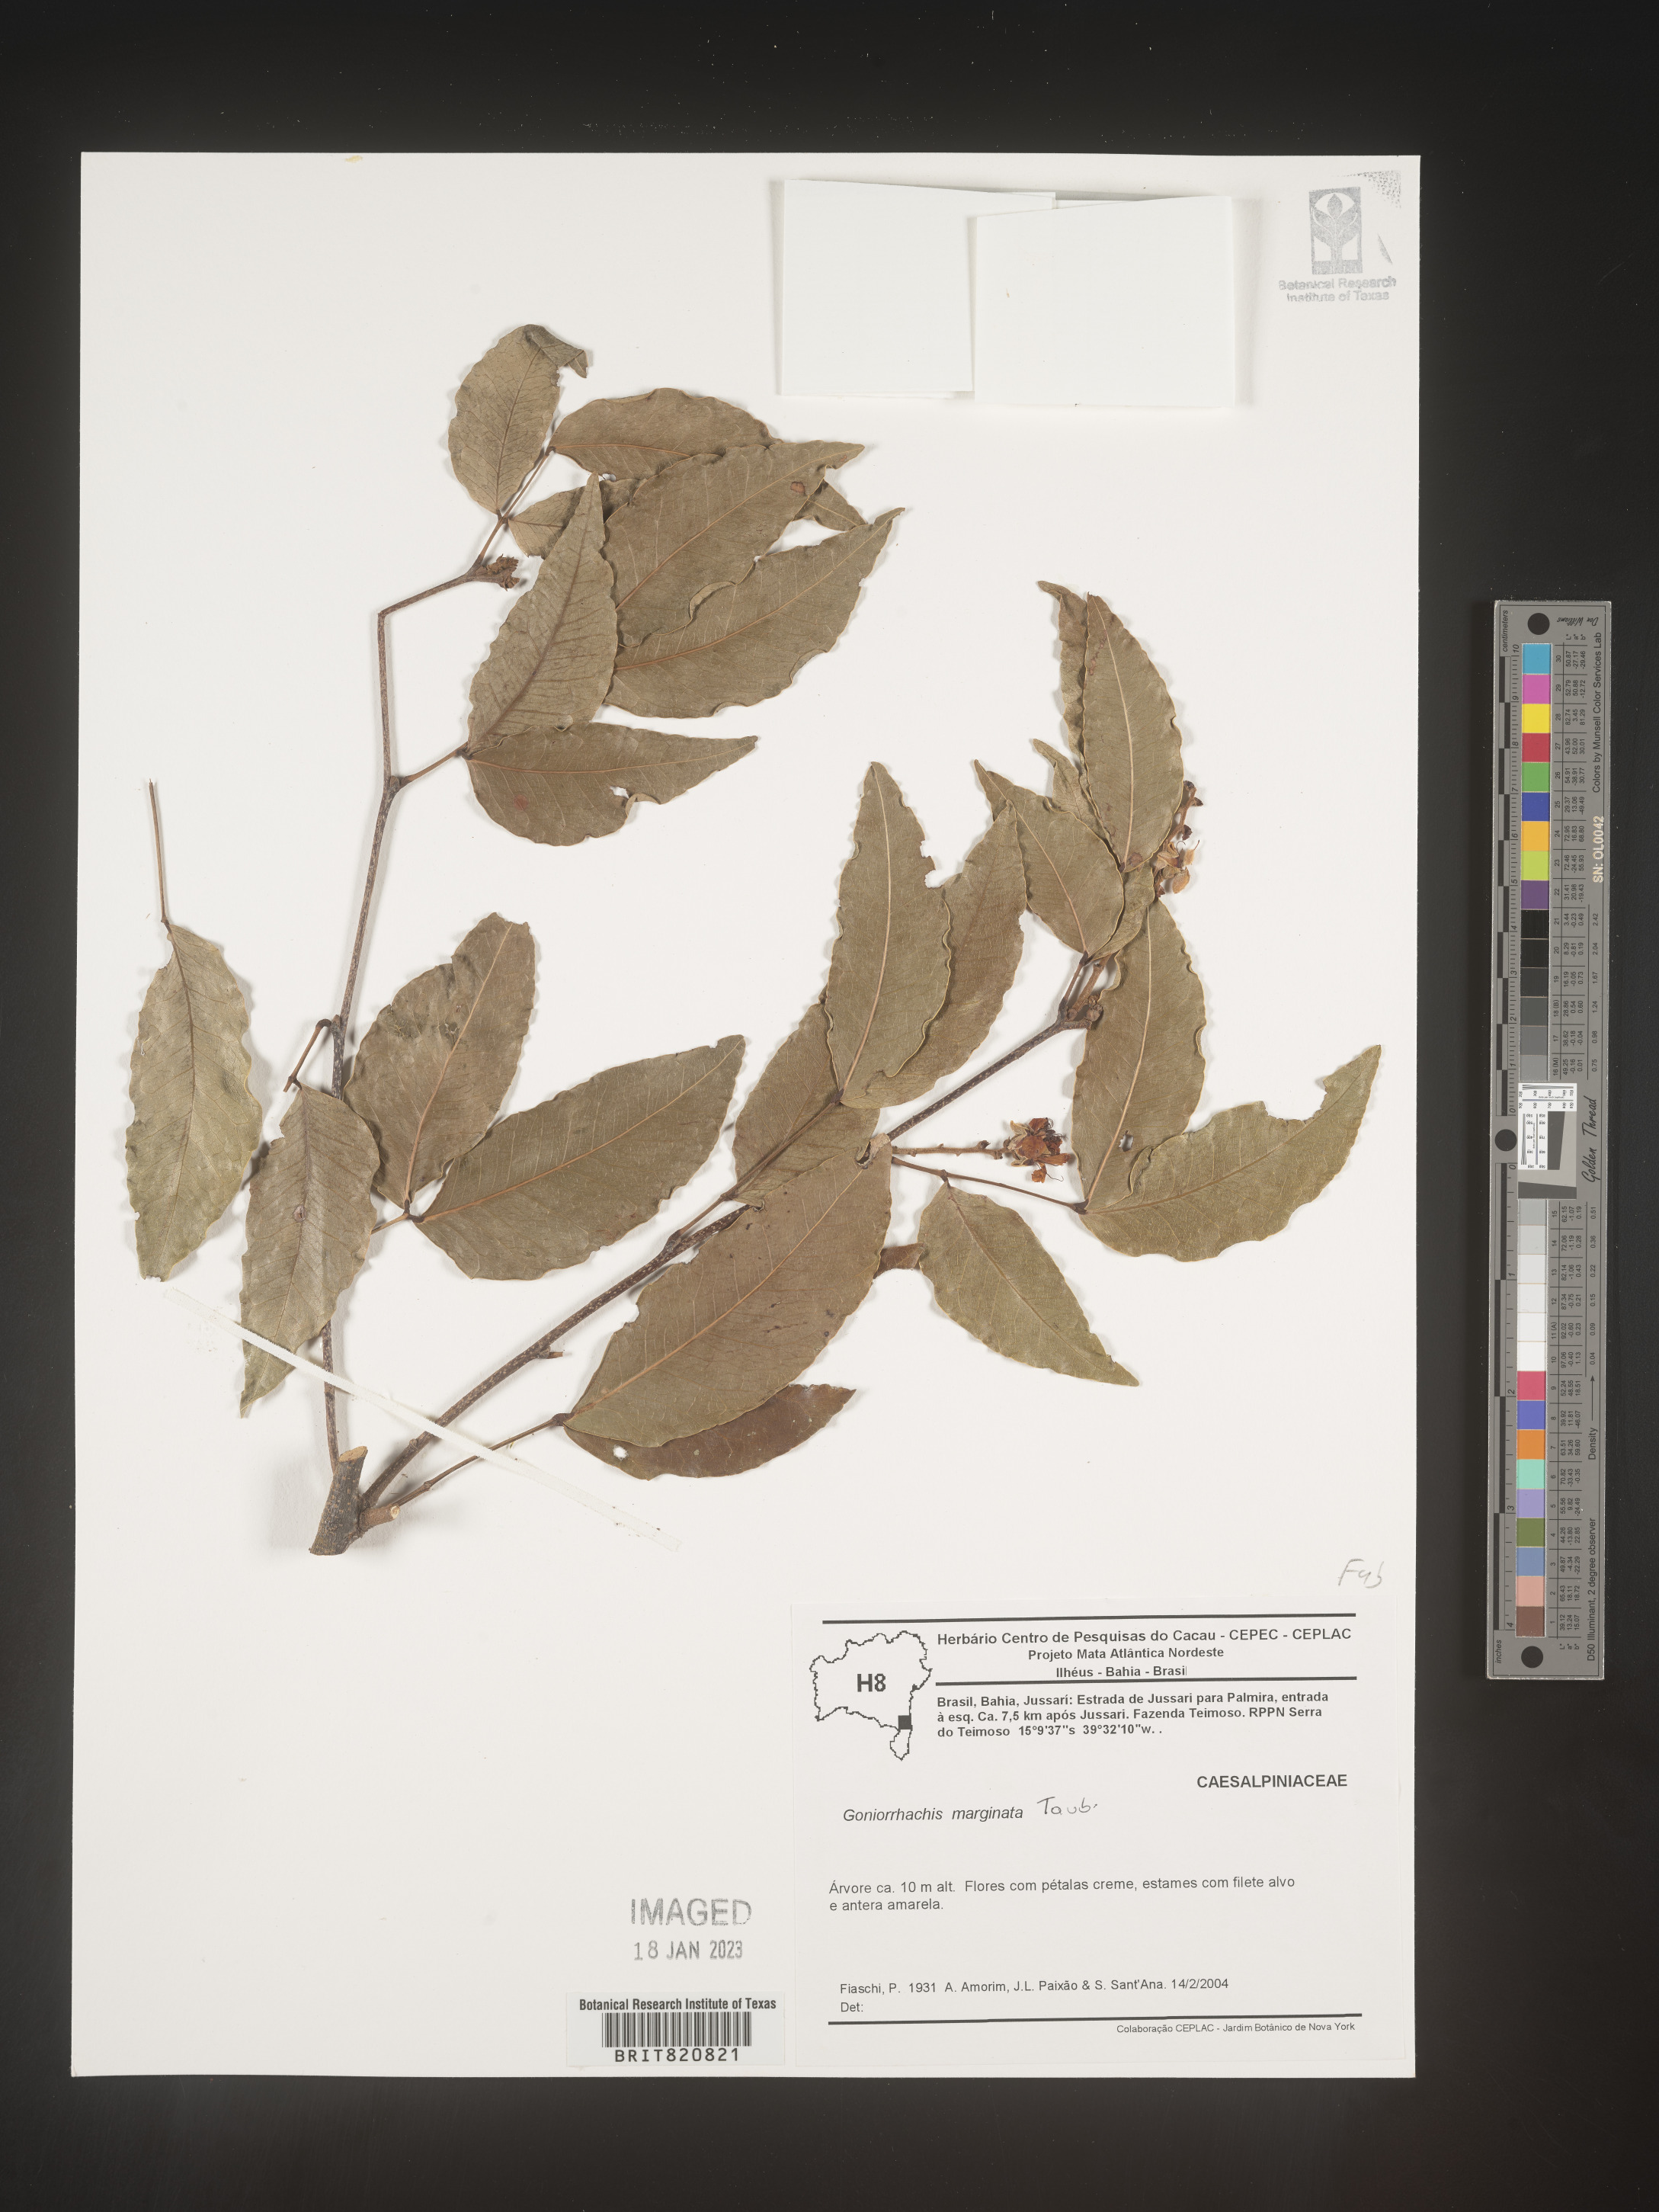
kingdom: Plantae
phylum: Tracheophyta
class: Magnoliopsida
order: Fabales
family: Fabaceae
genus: Goniorrhachis
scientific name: Goniorrhachis
